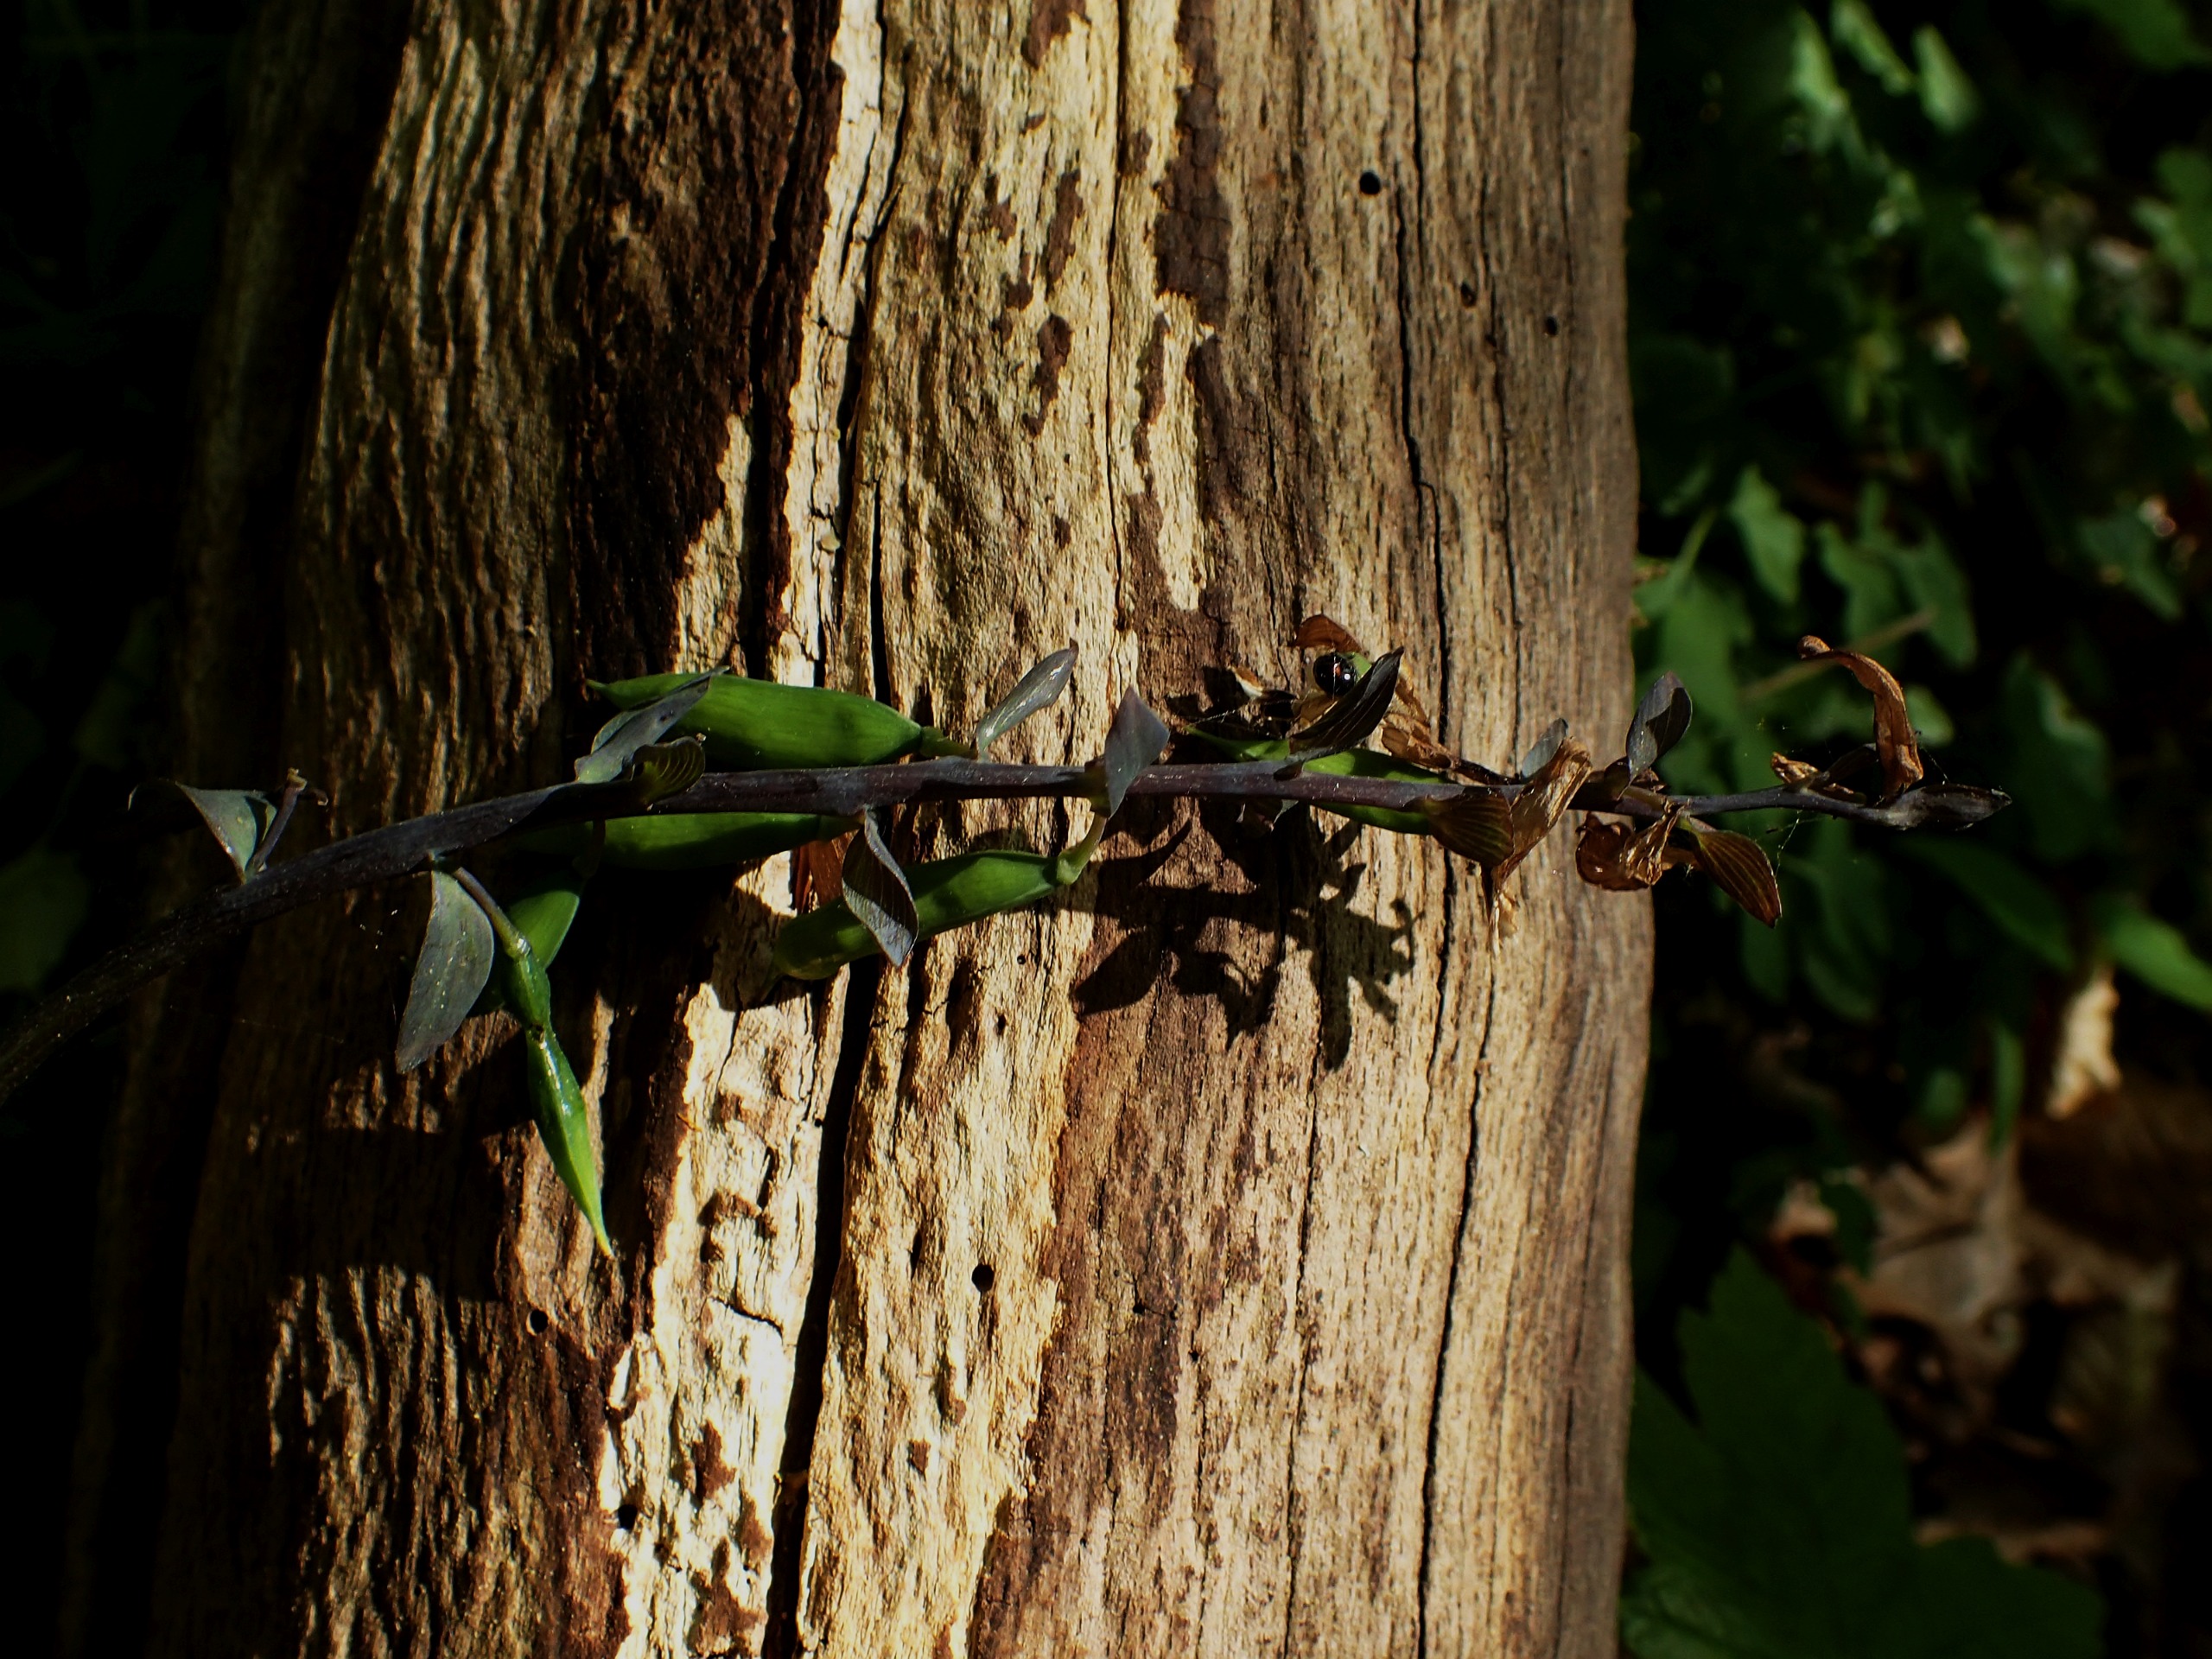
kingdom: Plantae
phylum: Tracheophyta
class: Magnoliopsida
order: Ranunculales
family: Papaveraceae
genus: Corydalis
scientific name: Corydalis cava
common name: Hulrodet lærkespore
